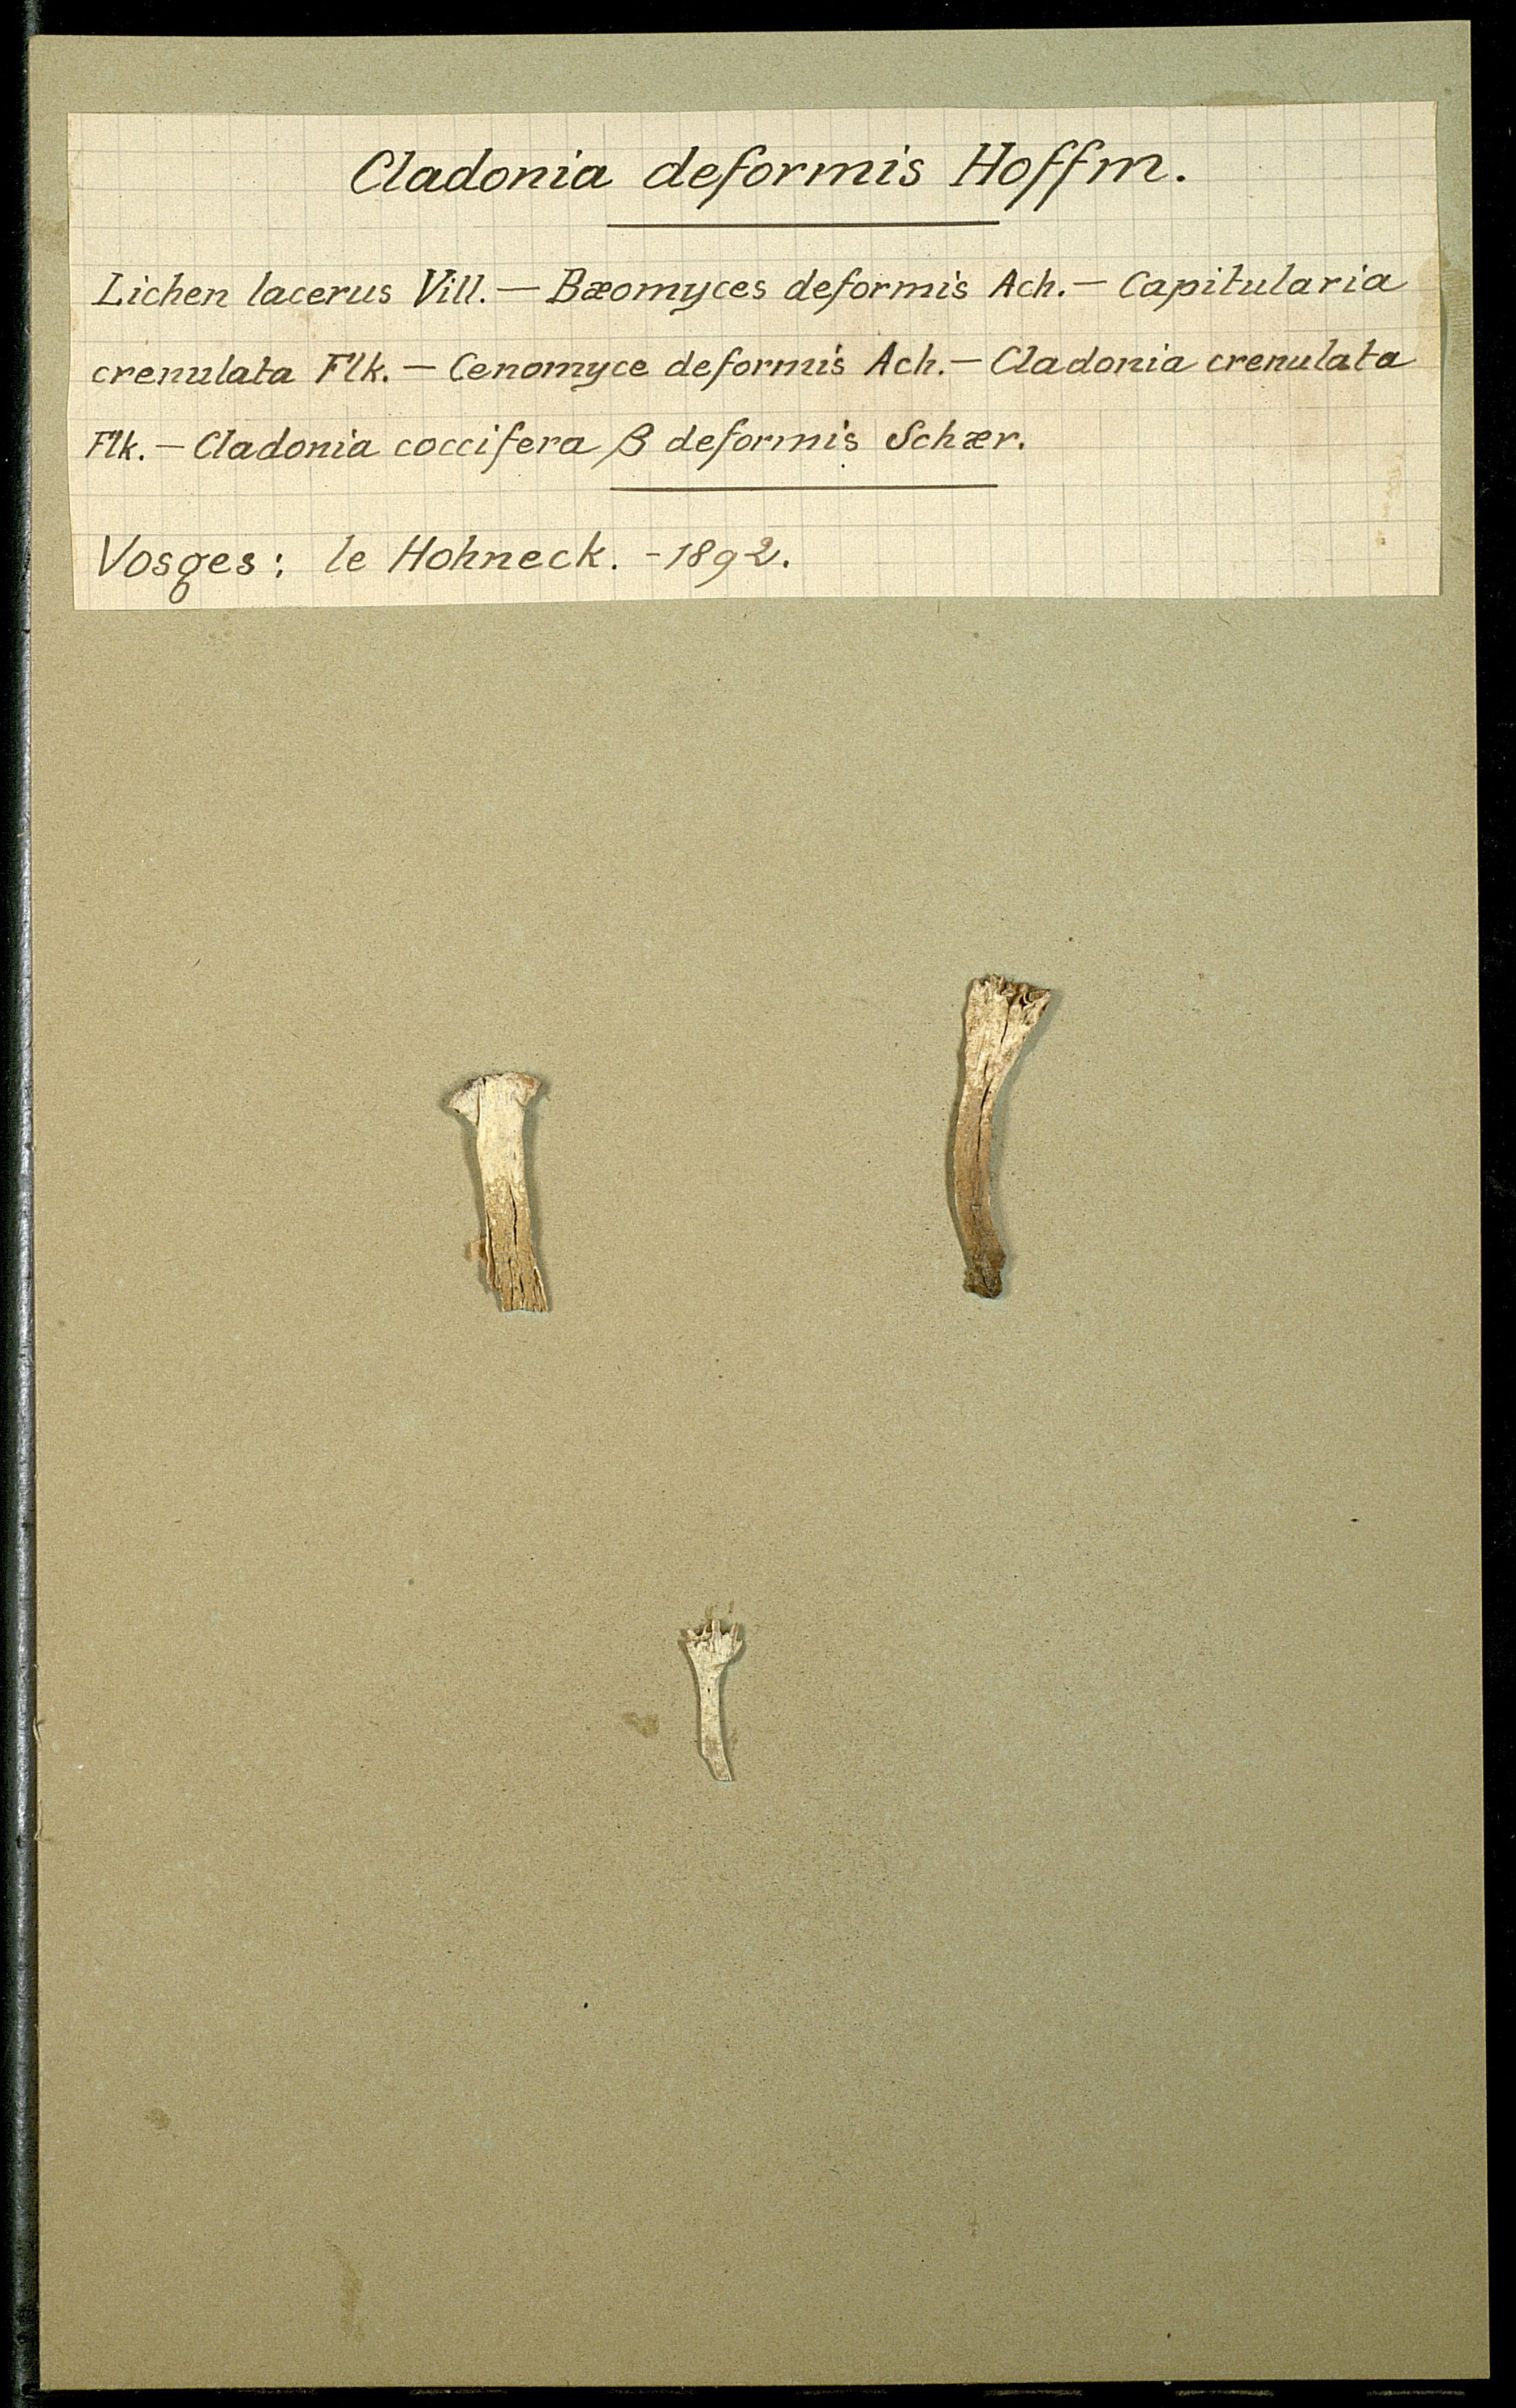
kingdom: Fungi
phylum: Ascomycota
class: Lecanoromycetes
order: Lecanorales
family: Cladoniaceae
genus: Cladonia
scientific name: Cladonia deformis
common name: Lesser sulphur-cup lichen
